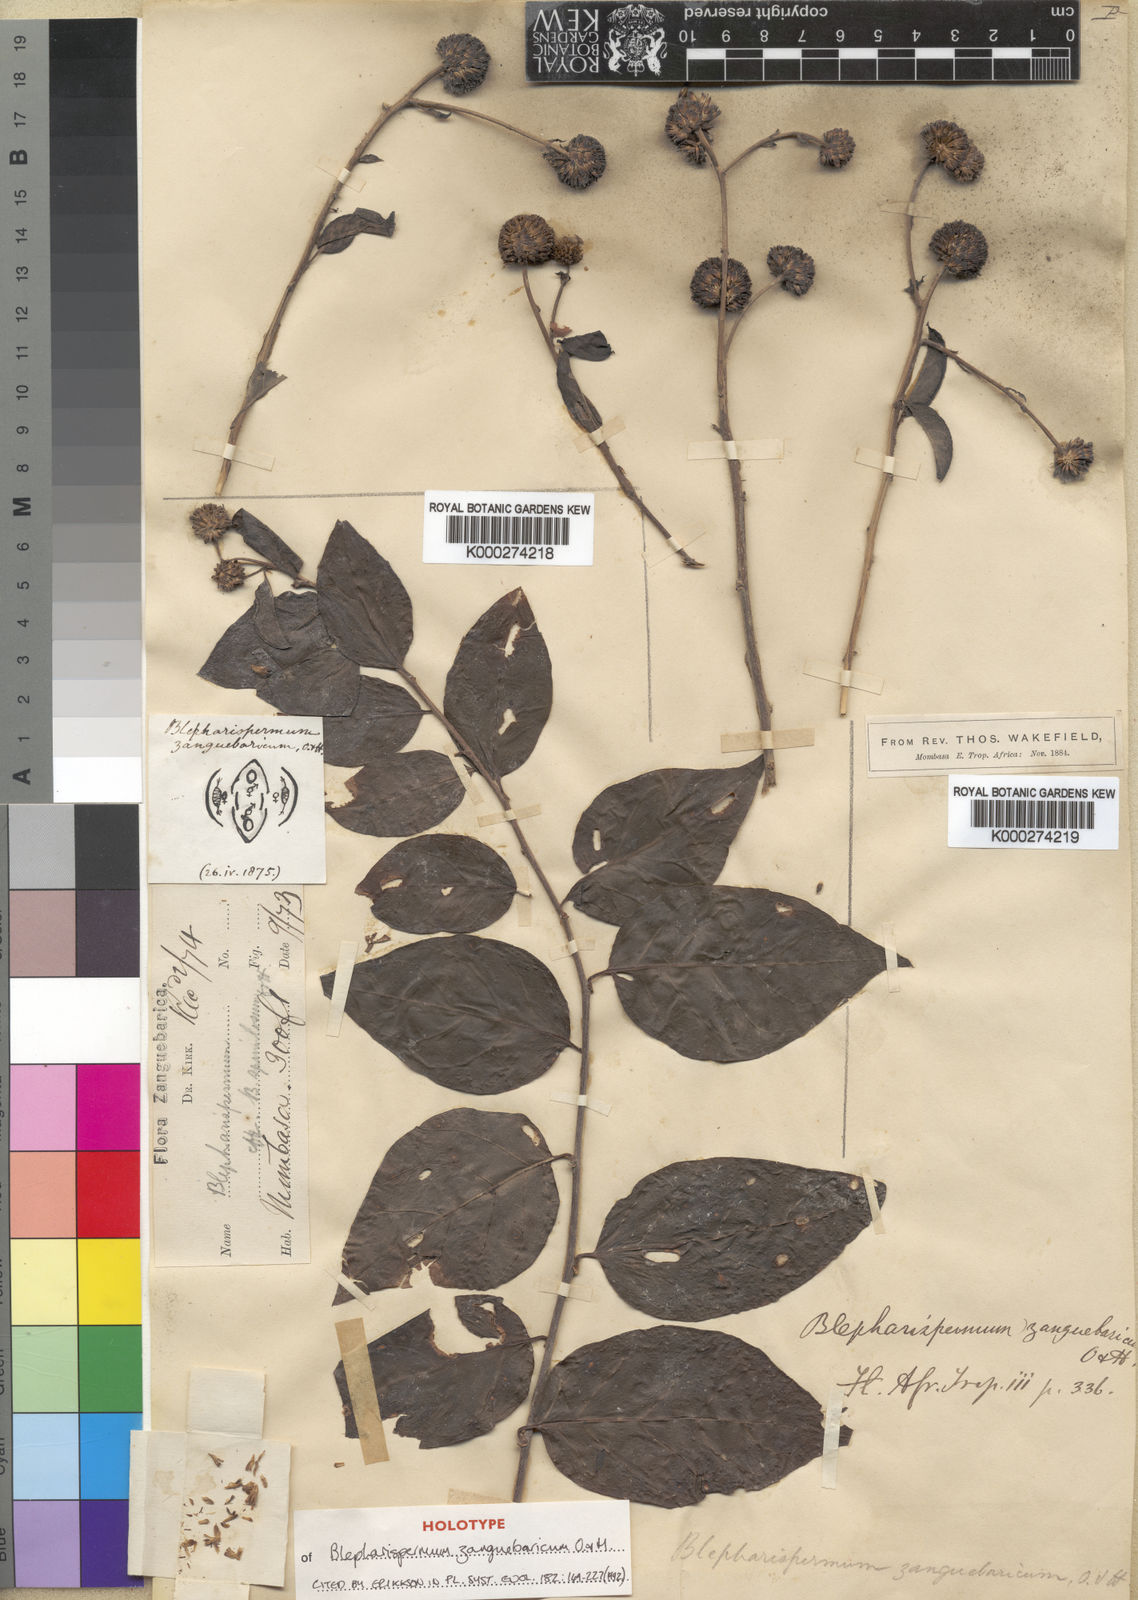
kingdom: Plantae
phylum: Tracheophyta
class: Magnoliopsida
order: Asterales
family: Asteraceae
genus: Blepharispermum
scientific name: Blepharispermum zanguebaricum
